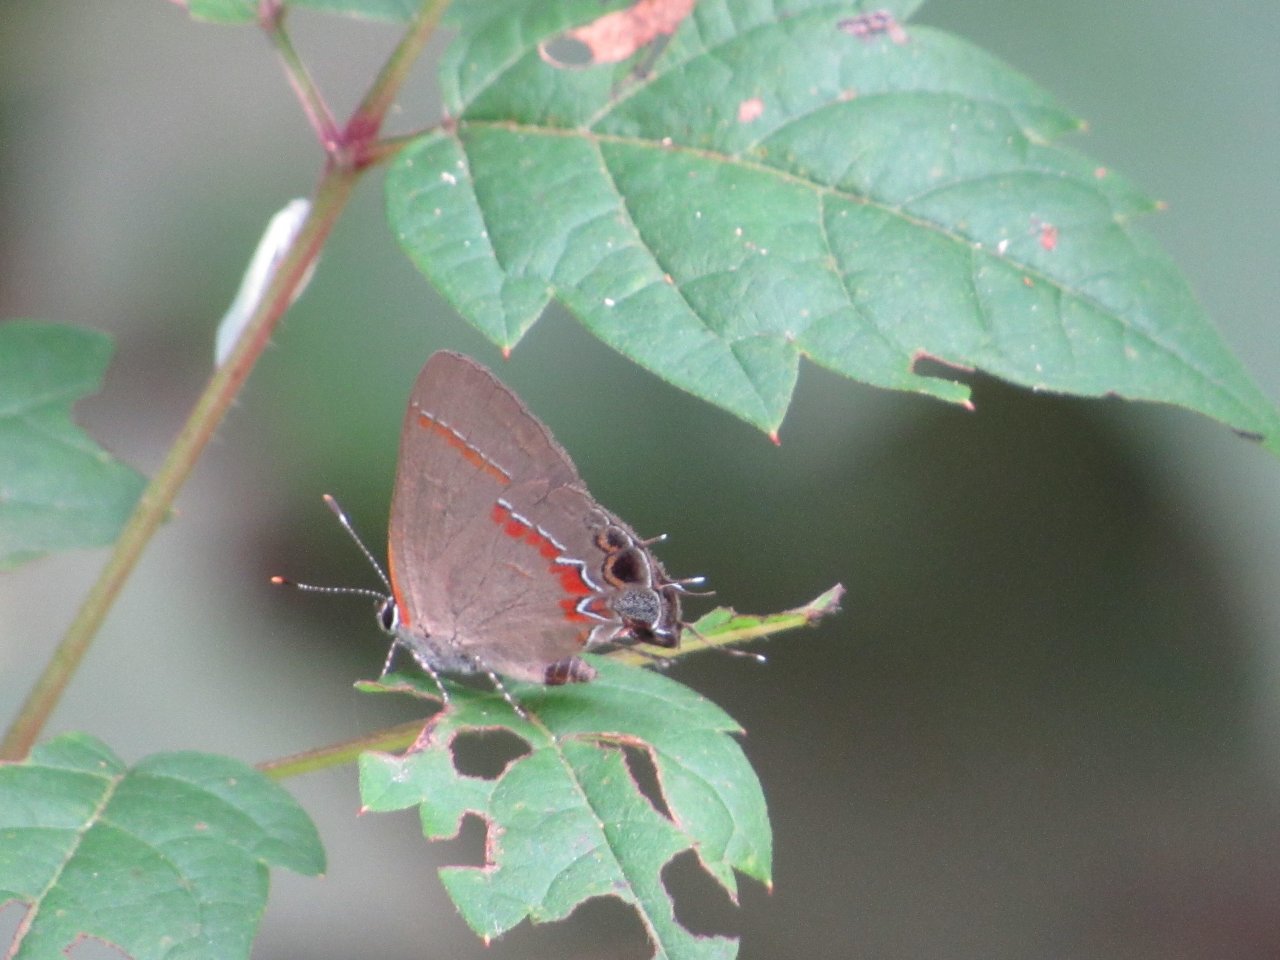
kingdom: Animalia
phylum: Arthropoda
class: Insecta
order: Lepidoptera
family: Lycaenidae
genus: Calycopis
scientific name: Calycopis cecrops
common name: Red-banded Hairstreak
